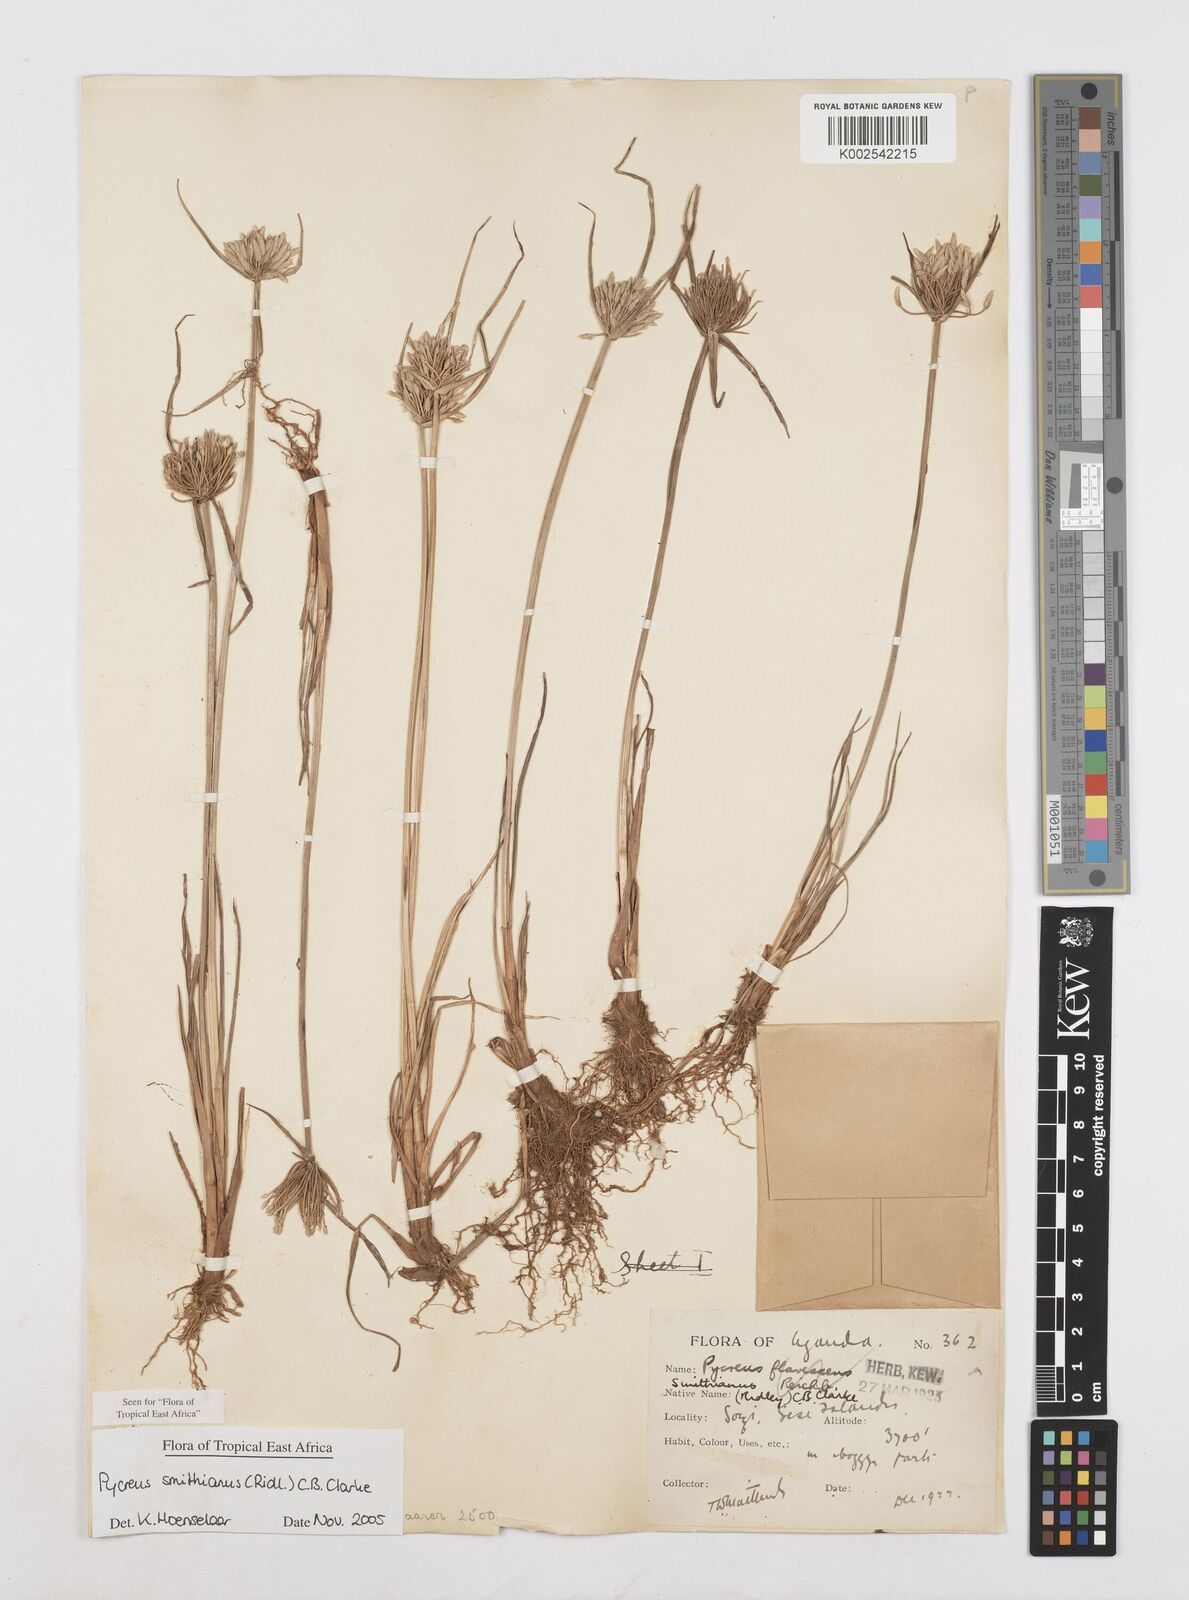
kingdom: Plantae
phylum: Tracheophyta
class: Liliopsida
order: Poales
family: Cyperaceae
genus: Cyperus
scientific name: Cyperus smithianus
